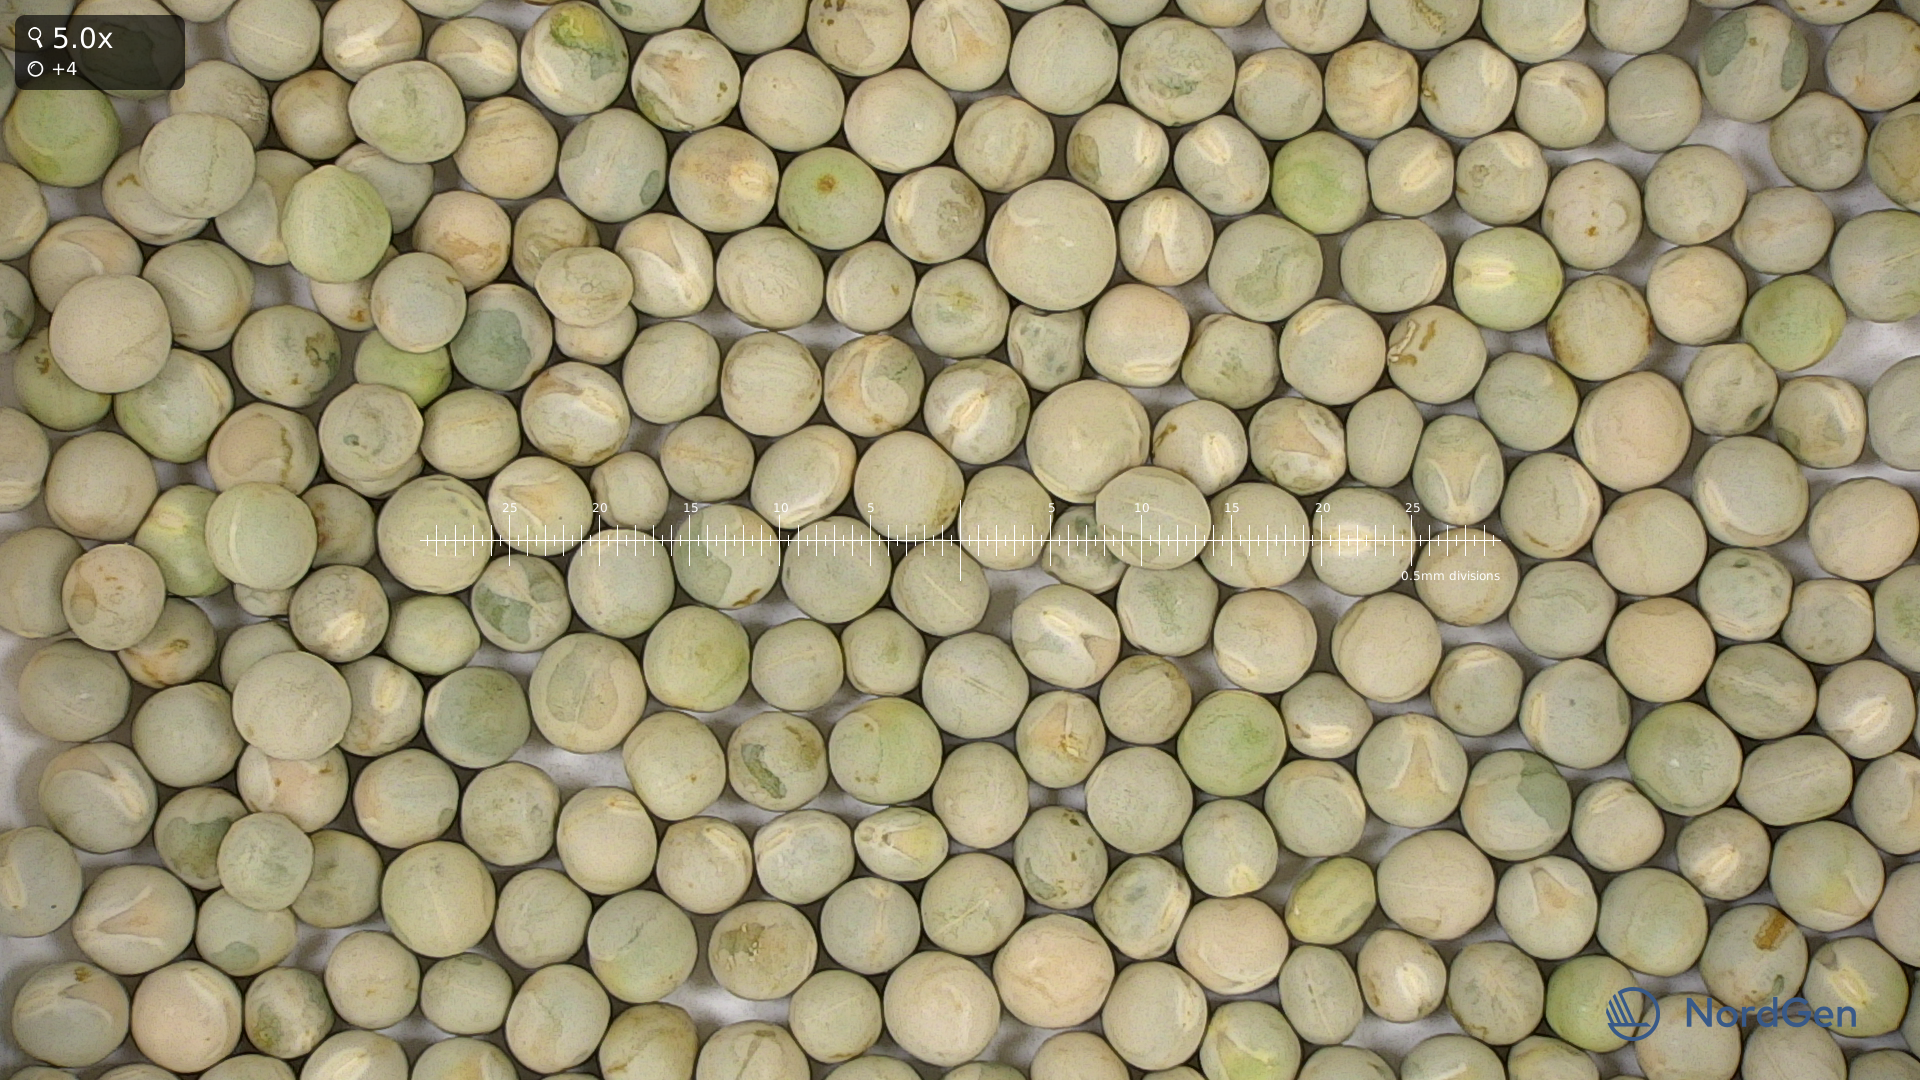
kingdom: Plantae
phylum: Tracheophyta
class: Magnoliopsida
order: Fabales
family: Fabaceae
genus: Lathyrus
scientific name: Lathyrus oleraceus
